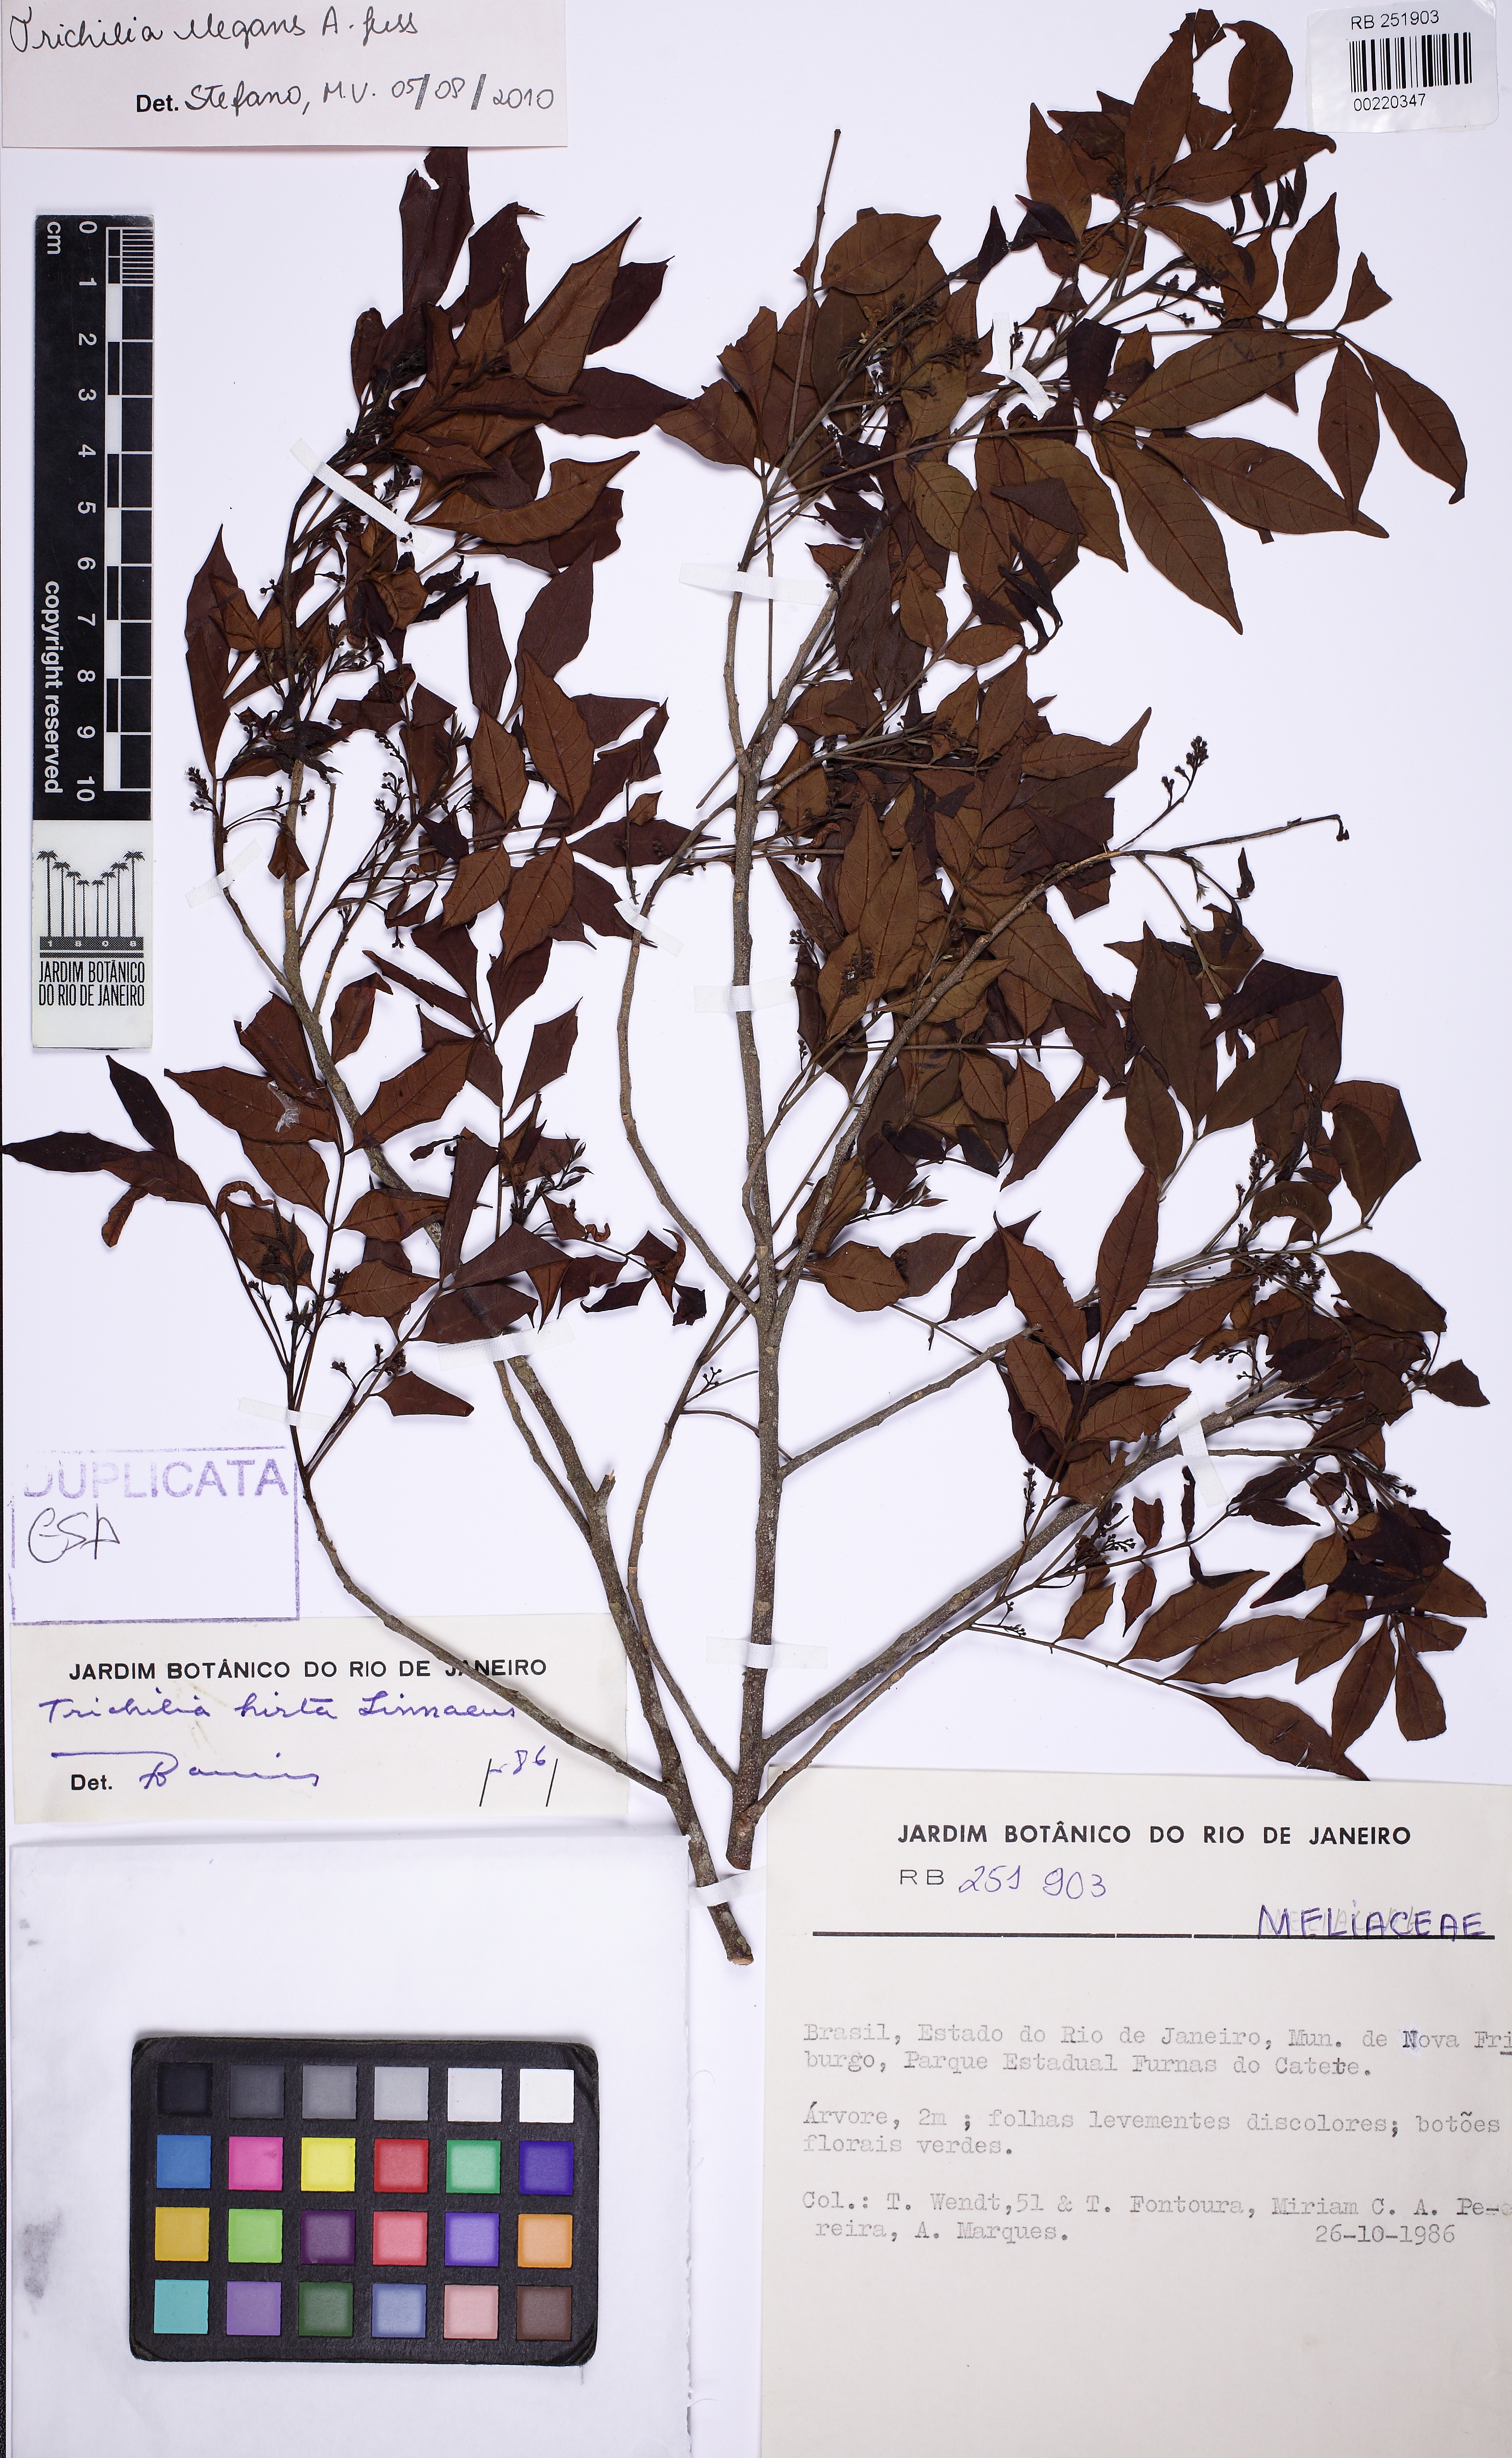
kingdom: Plantae
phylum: Tracheophyta
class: Magnoliopsida
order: Sapindales
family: Meliaceae
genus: Trichilia
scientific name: Trichilia elegans
